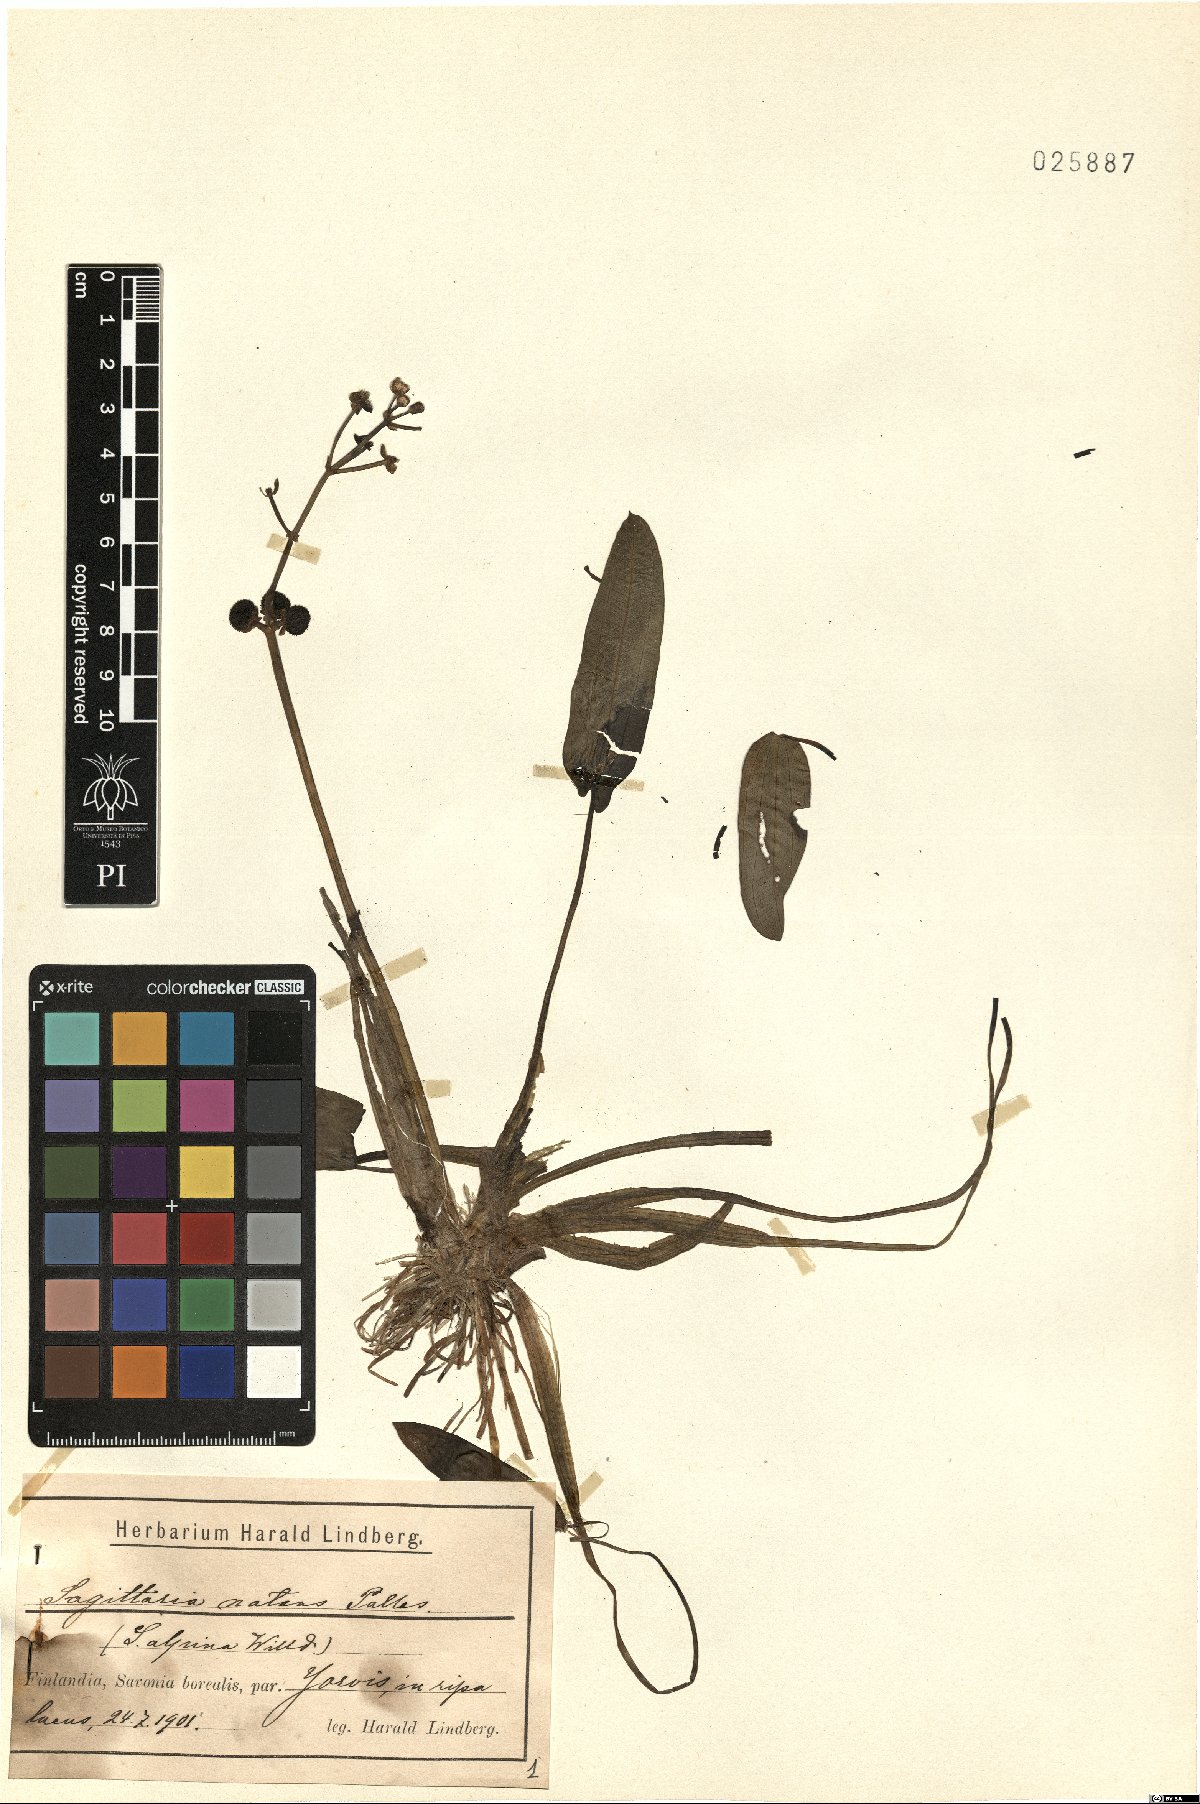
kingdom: Plantae
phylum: Tracheophyta
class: Liliopsida
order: Alismatales
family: Alismataceae
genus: Sagittaria
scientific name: Sagittaria natans
